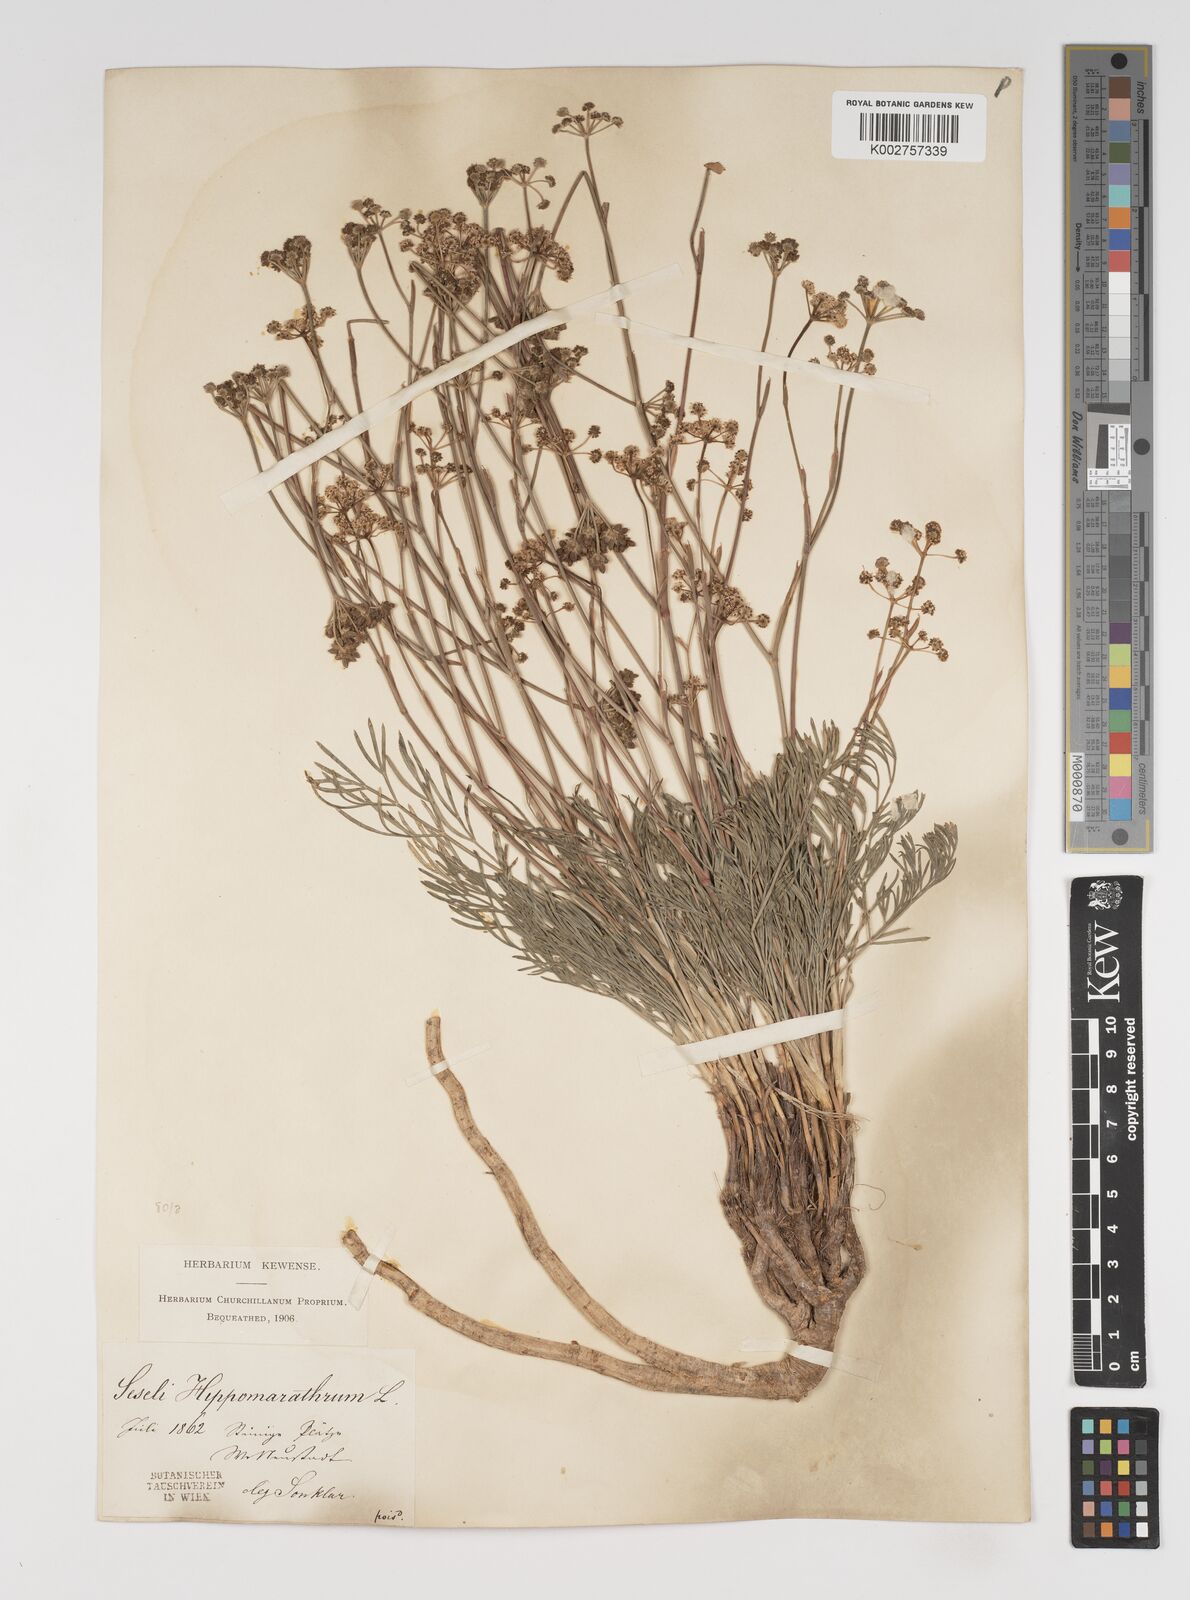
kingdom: Plantae
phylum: Tracheophyta
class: Magnoliopsida
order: Apiales
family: Apiaceae
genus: Hippomarathrum
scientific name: Hippomarathrum vulgare
